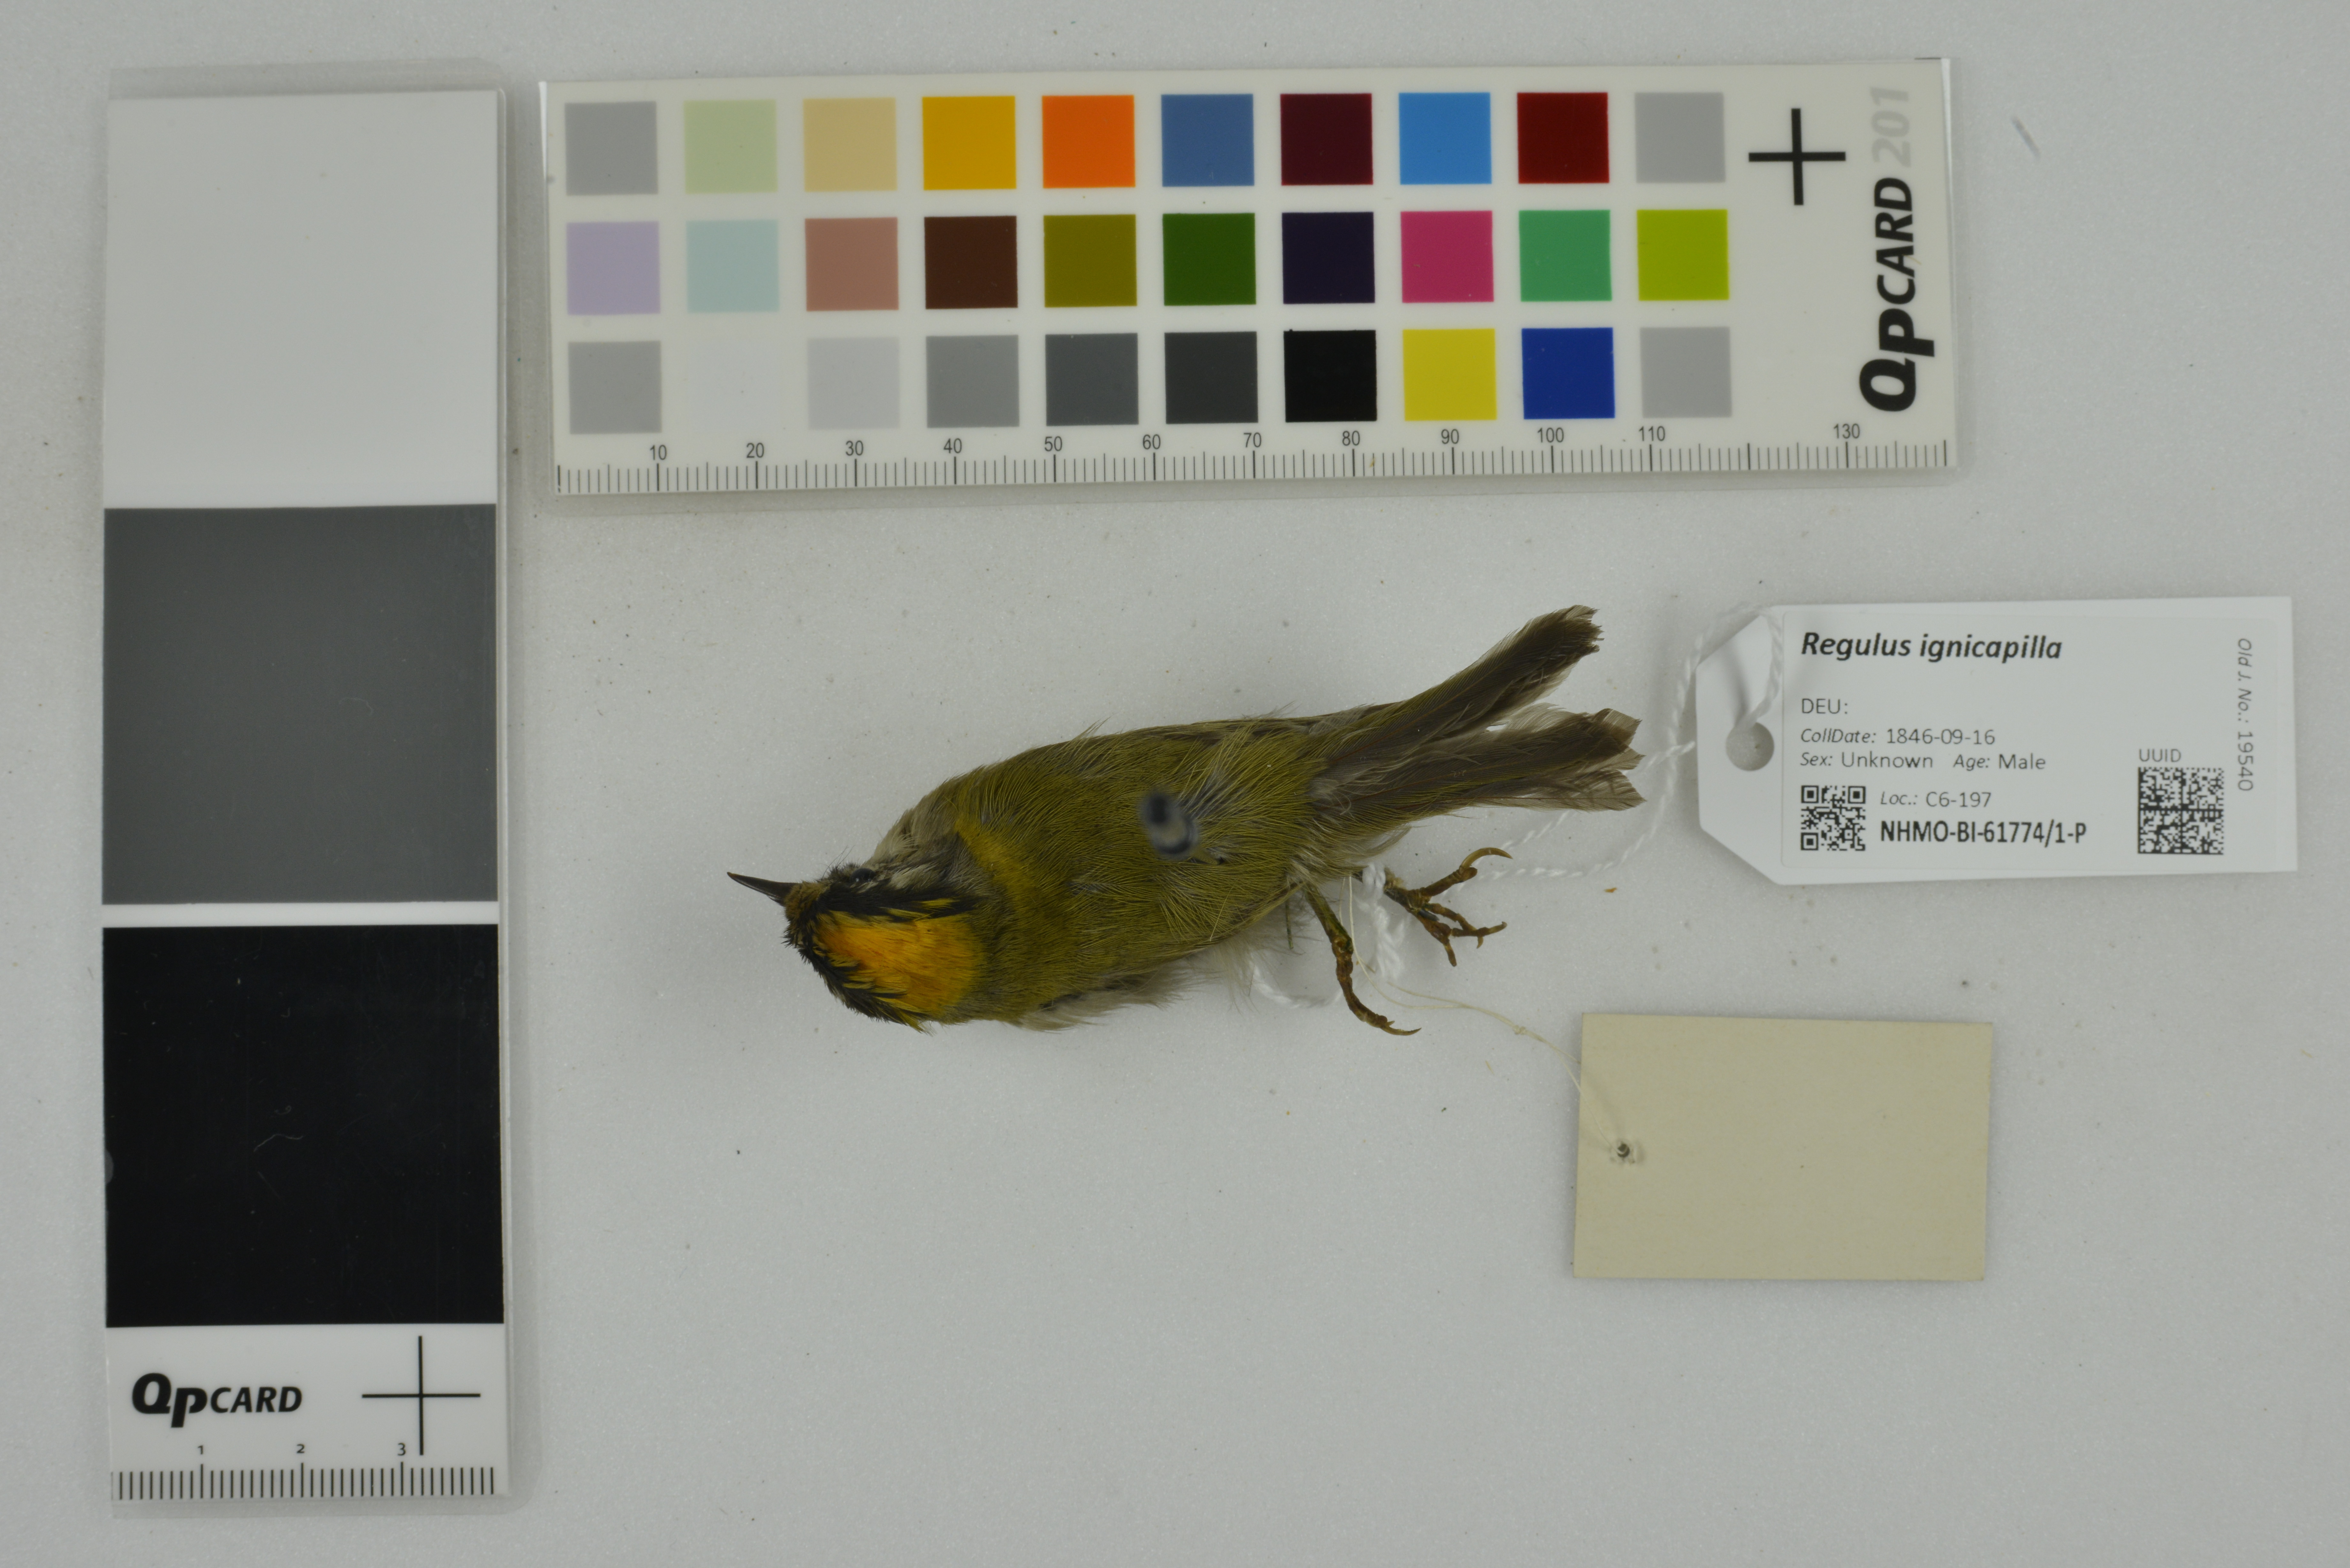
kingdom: Animalia
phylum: Chordata
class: Aves
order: Passeriformes
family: Regulidae
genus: Regulus
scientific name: Regulus ignicapilla
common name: Firecrest
